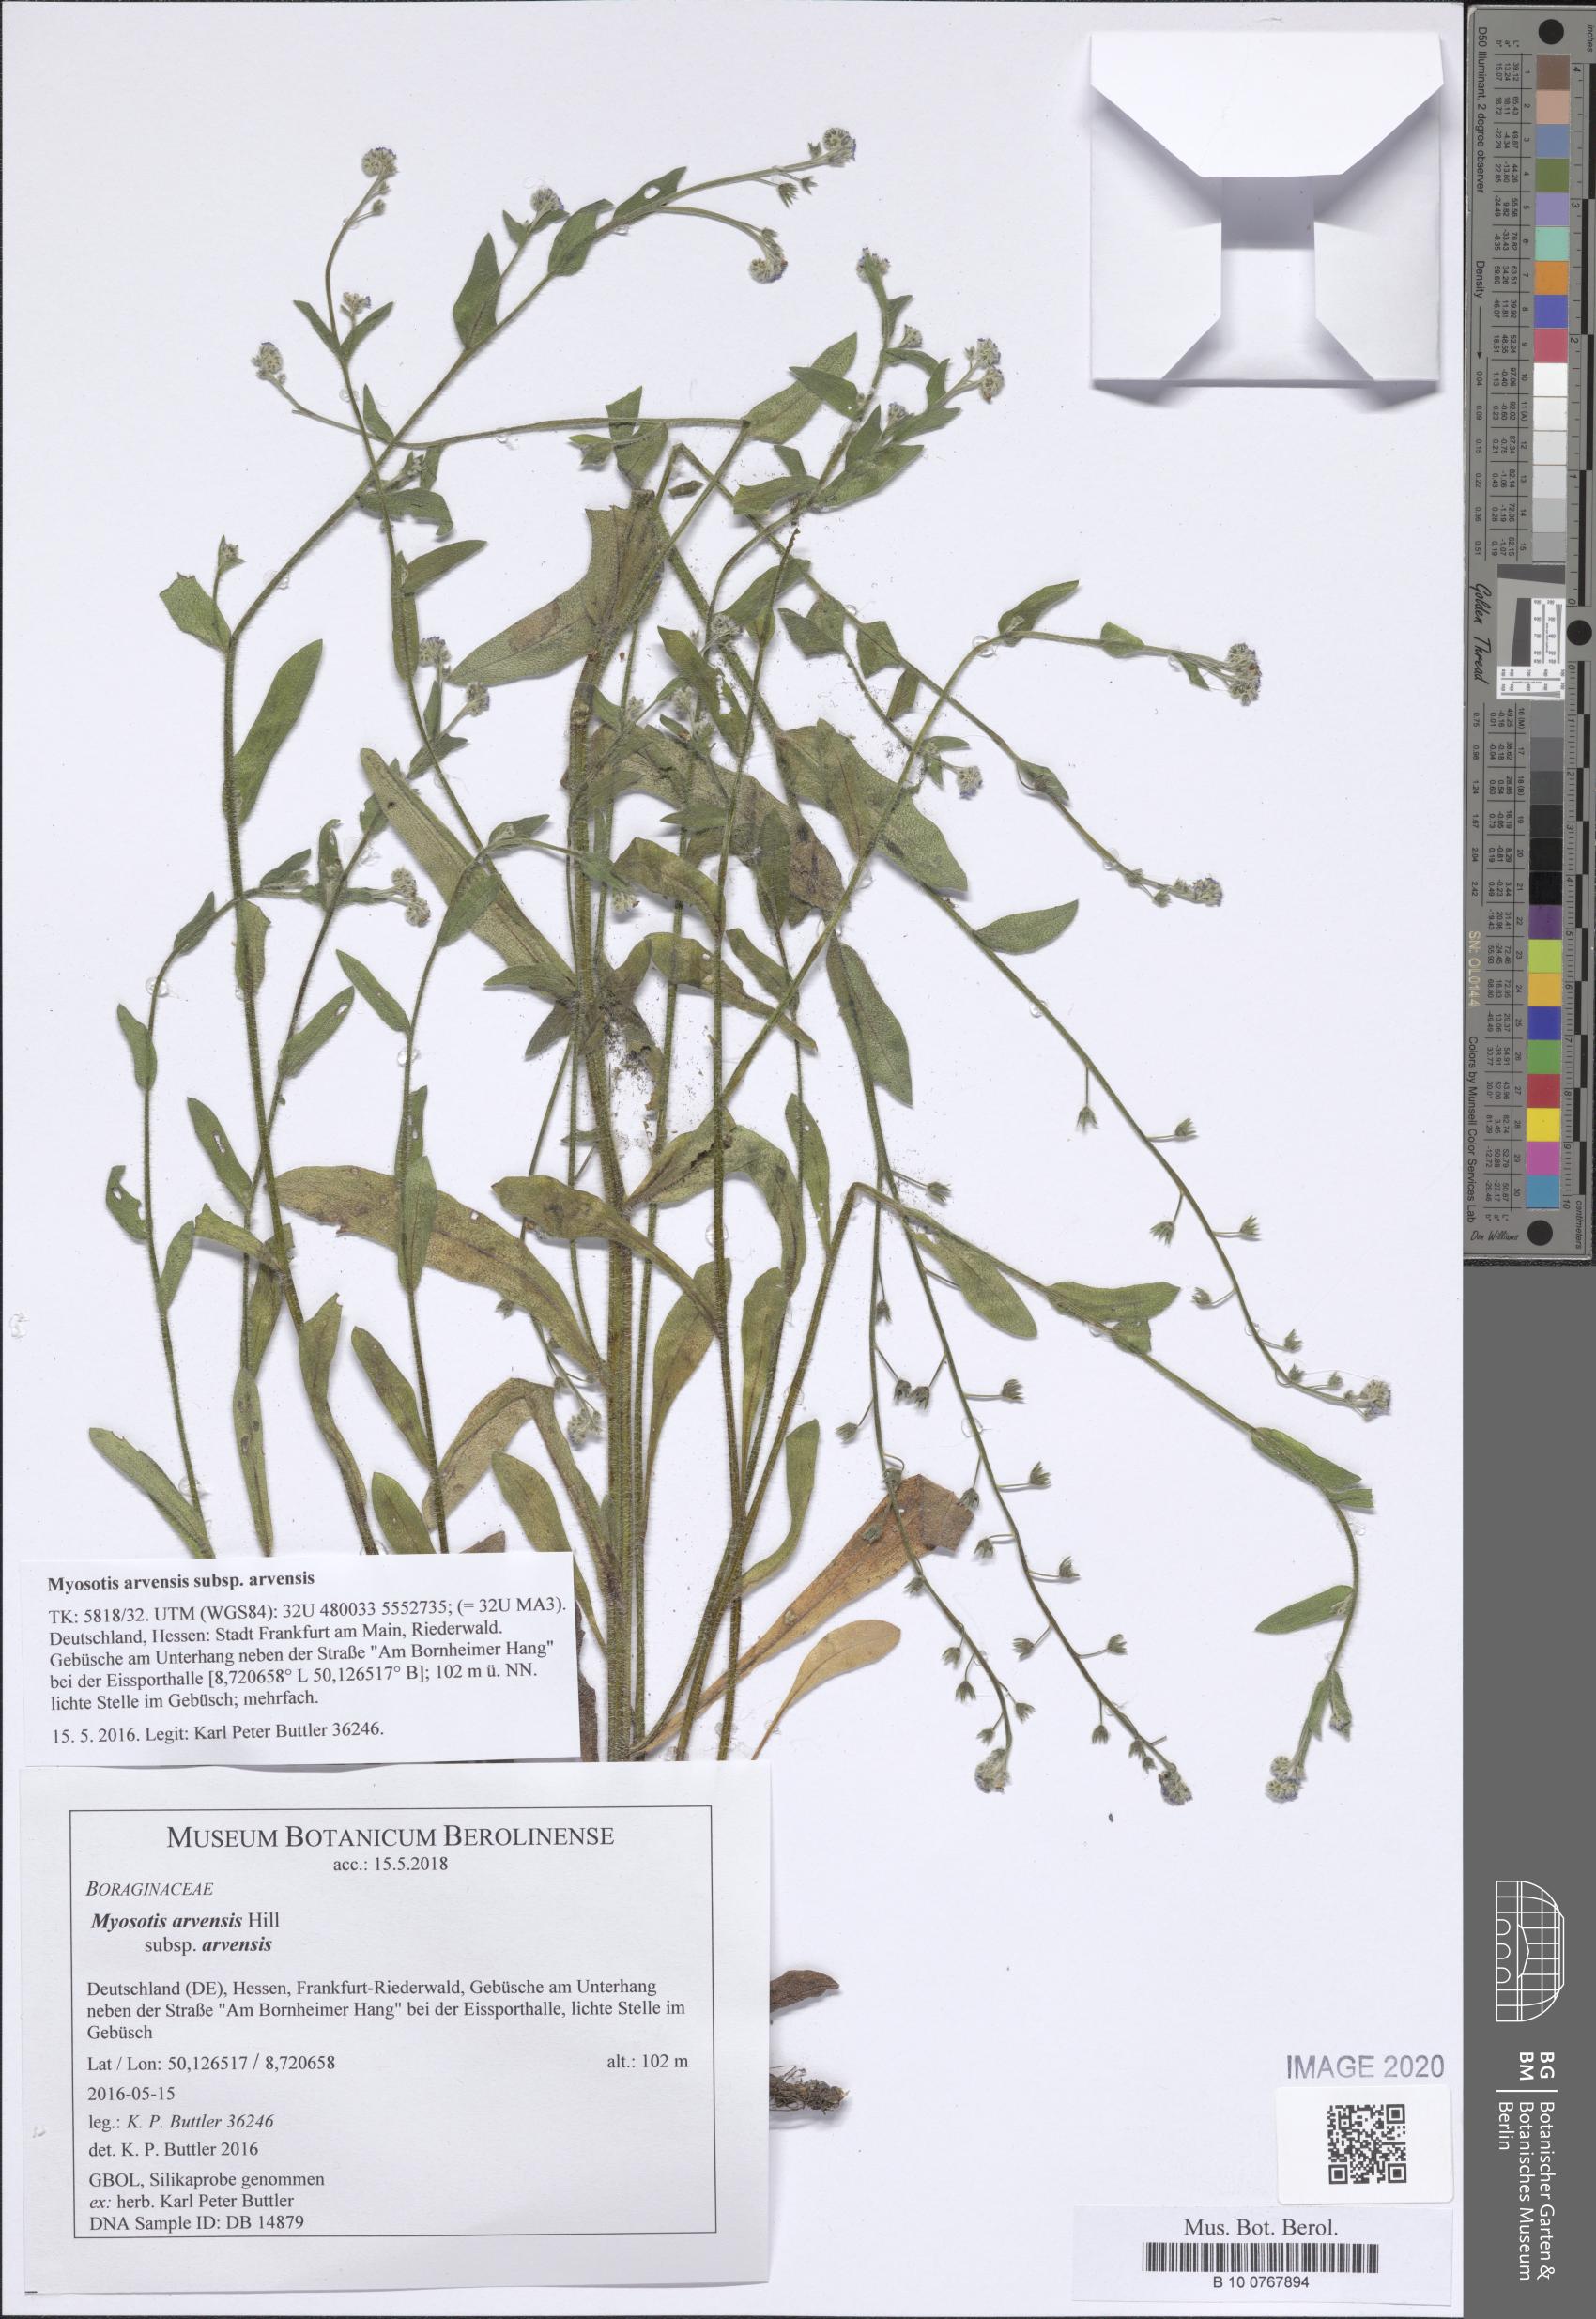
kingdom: Plantae
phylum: Tracheophyta
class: Magnoliopsida
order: Boraginales
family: Boraginaceae
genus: Myosotis
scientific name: Myosotis arvensis
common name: Field forget-me-not
